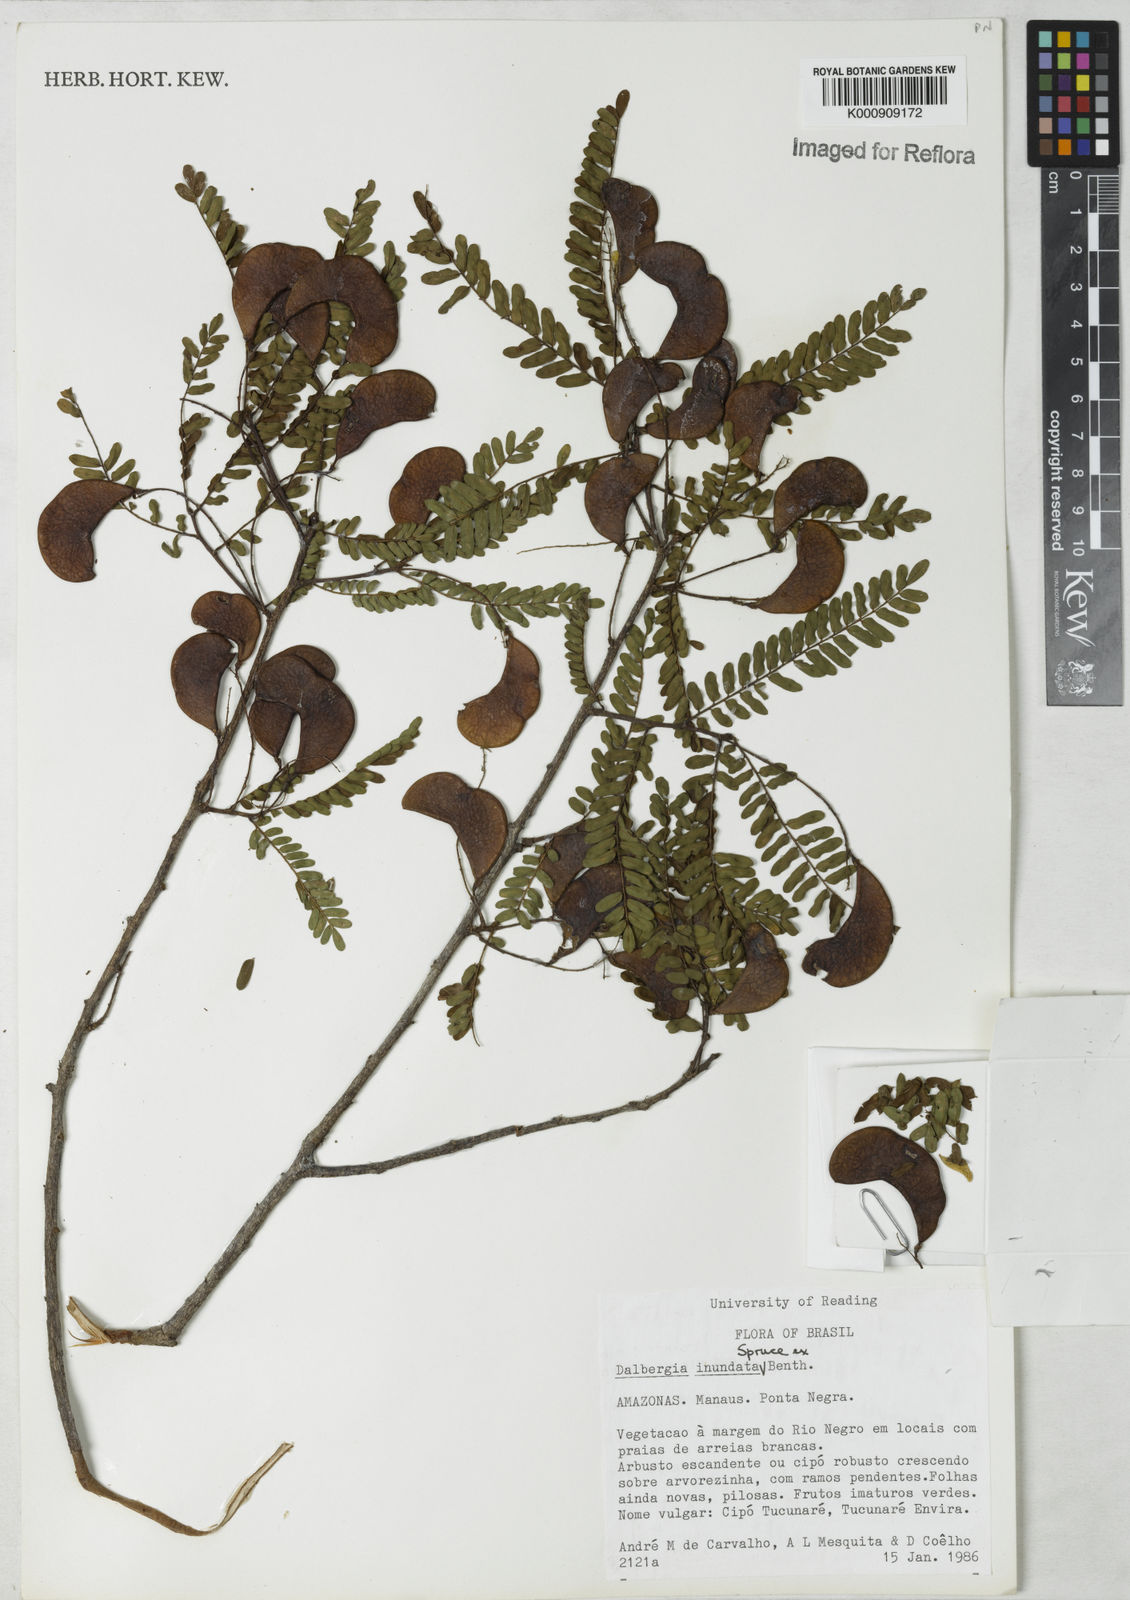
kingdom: Plantae
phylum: Tracheophyta
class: Magnoliopsida
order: Fabales
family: Fabaceae
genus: Dalbergia
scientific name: Dalbergia inundata
